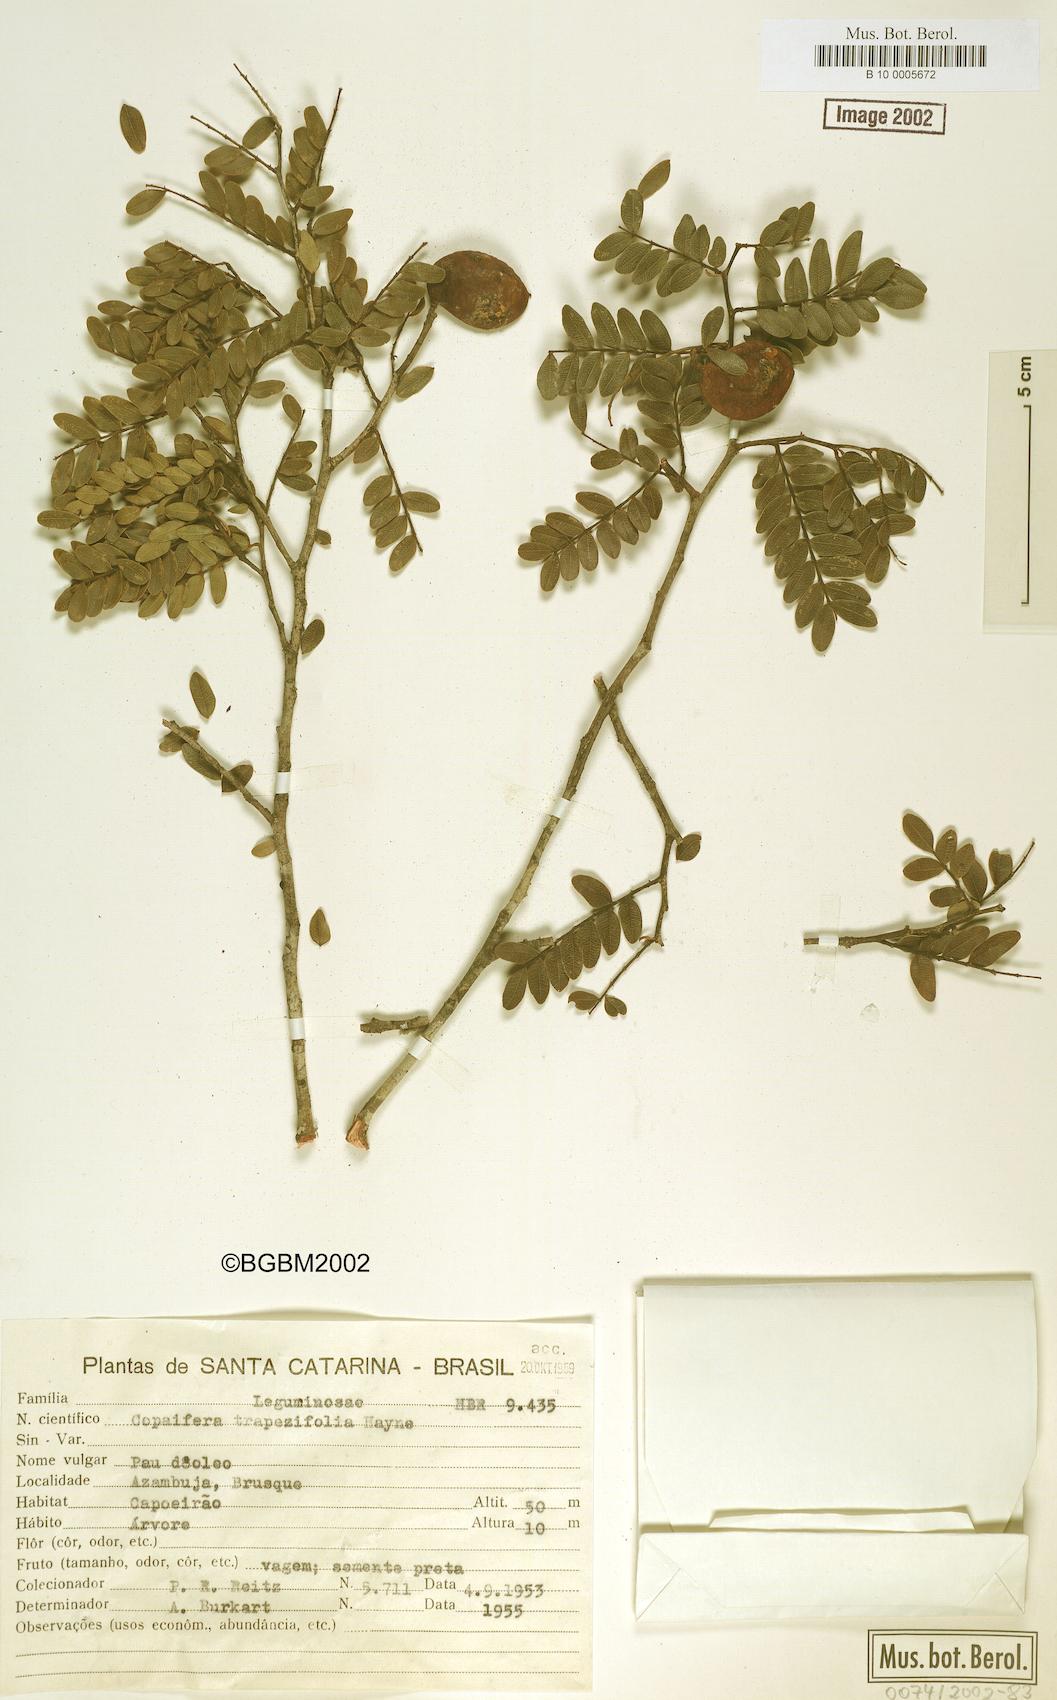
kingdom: Plantae
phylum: Tracheophyta
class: Magnoliopsida
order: Fabales
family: Fabaceae
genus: Copaifera
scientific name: Copaifera trapezifolia
